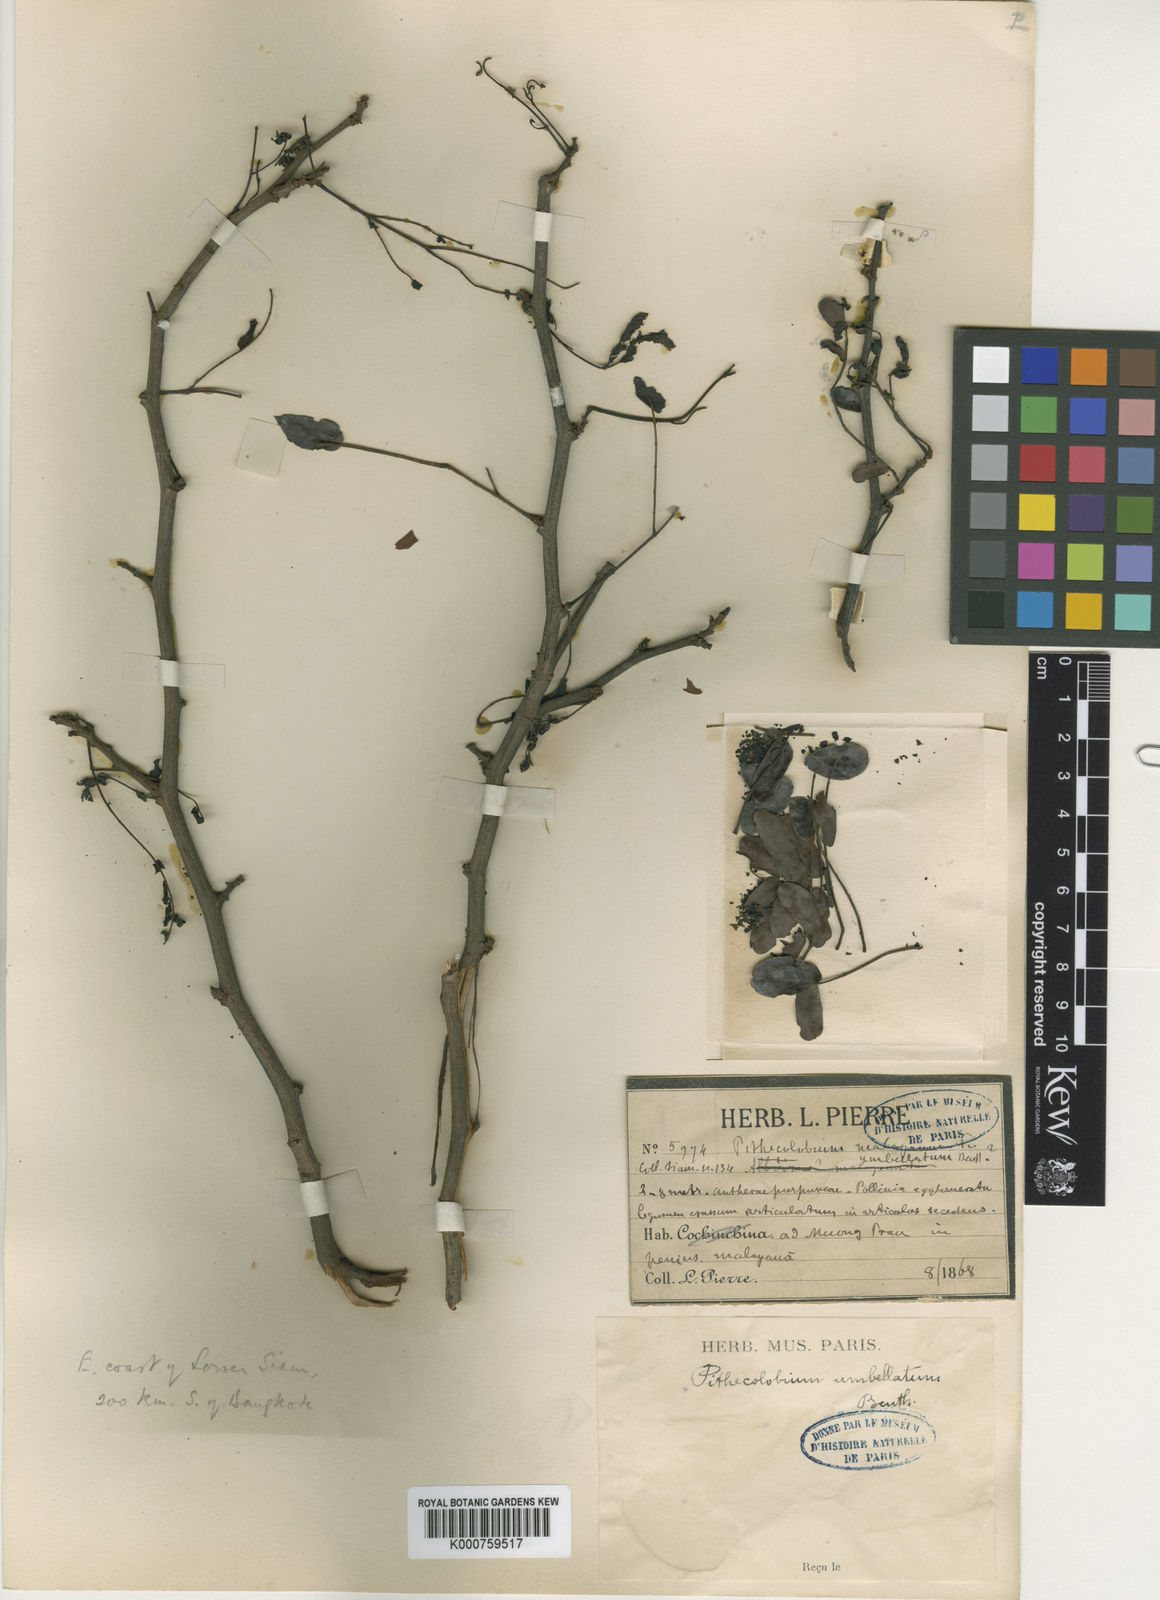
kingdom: Plantae
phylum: Tracheophyta
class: Magnoliopsida
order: Fabales
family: Fabaceae
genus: Cathormion
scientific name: Cathormion umbellatum
